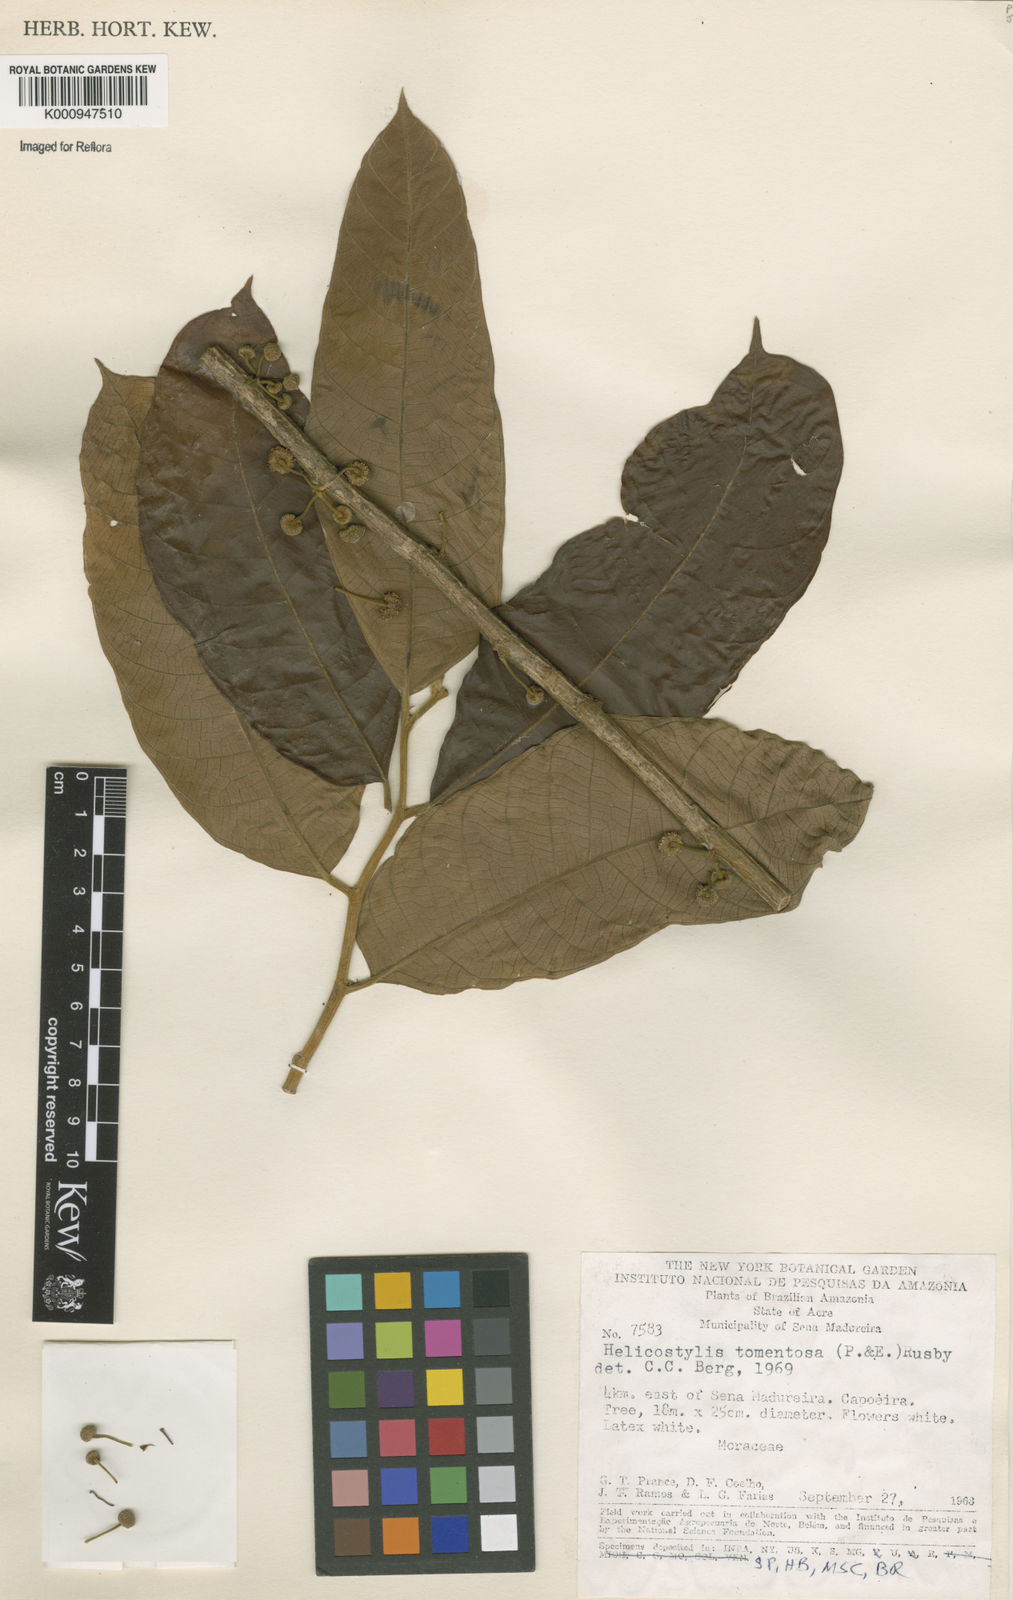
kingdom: Plantae
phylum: Tracheophyta
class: Magnoliopsida
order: Rosales
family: Moraceae
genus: Helicostylis
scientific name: Helicostylis
